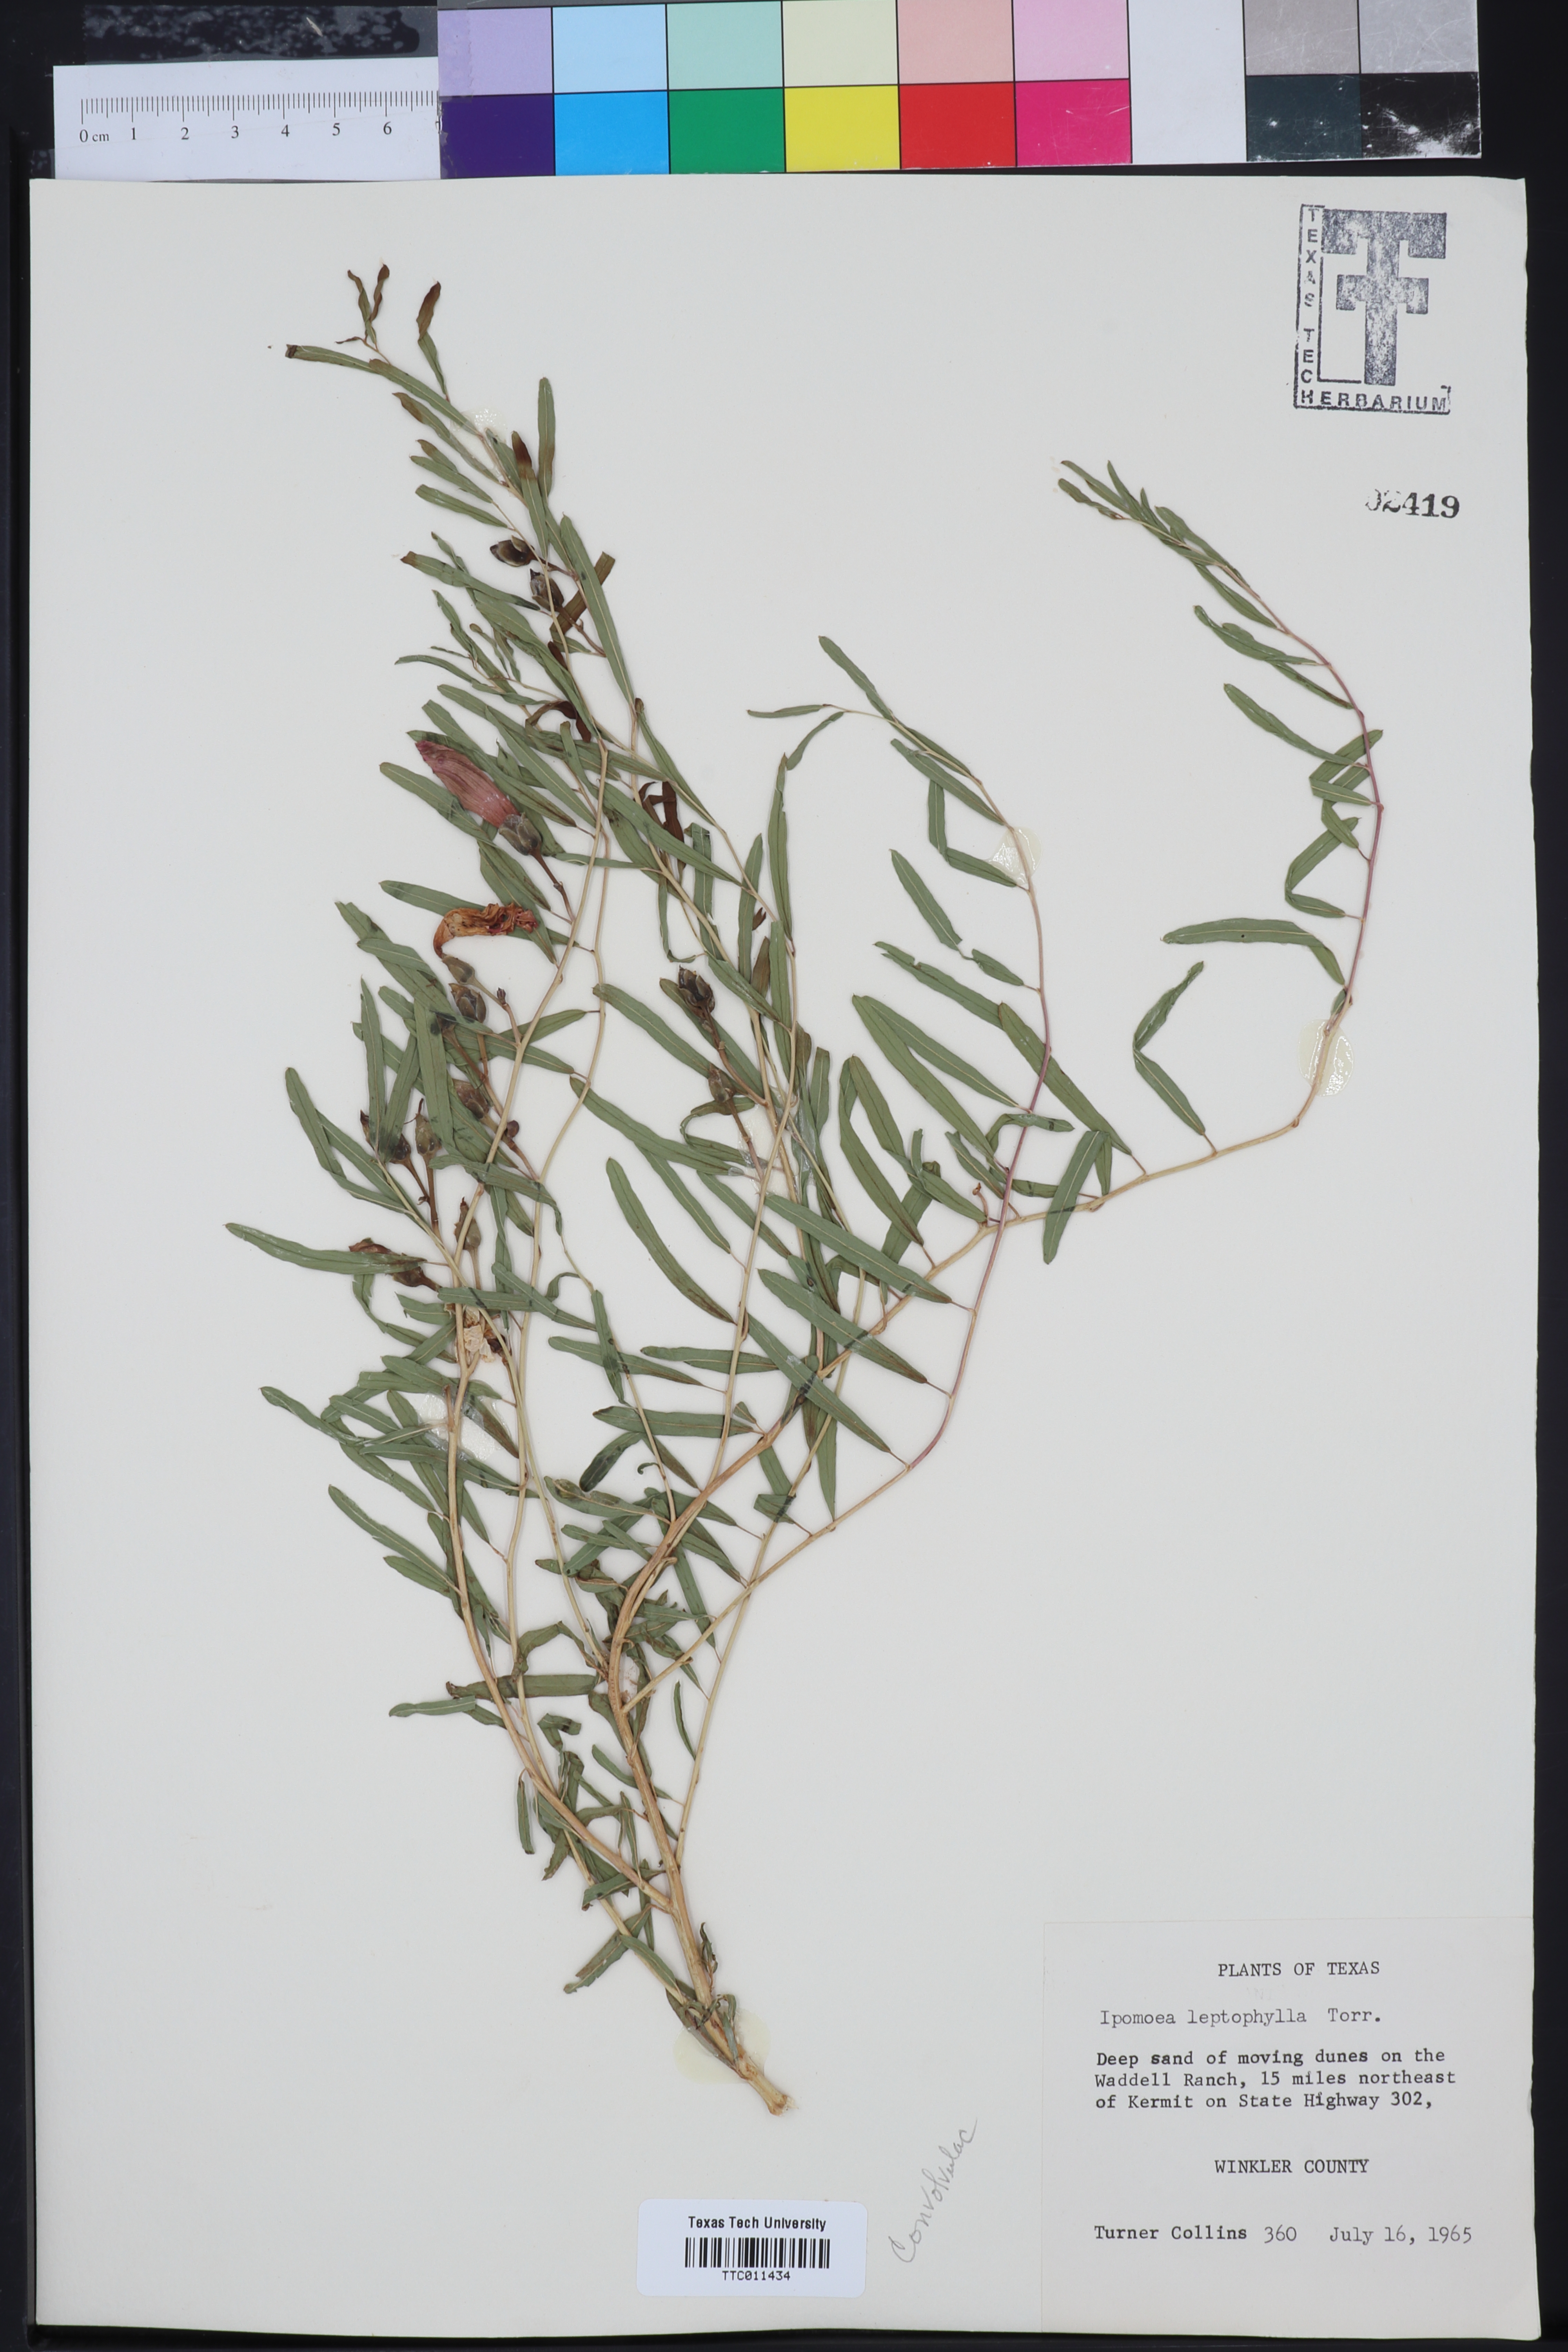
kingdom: Plantae
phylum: Tracheophyta
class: Magnoliopsida
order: Solanales
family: Convolvulaceae
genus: Ipomoea
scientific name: Ipomoea leptophylla
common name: Bush moonflower
